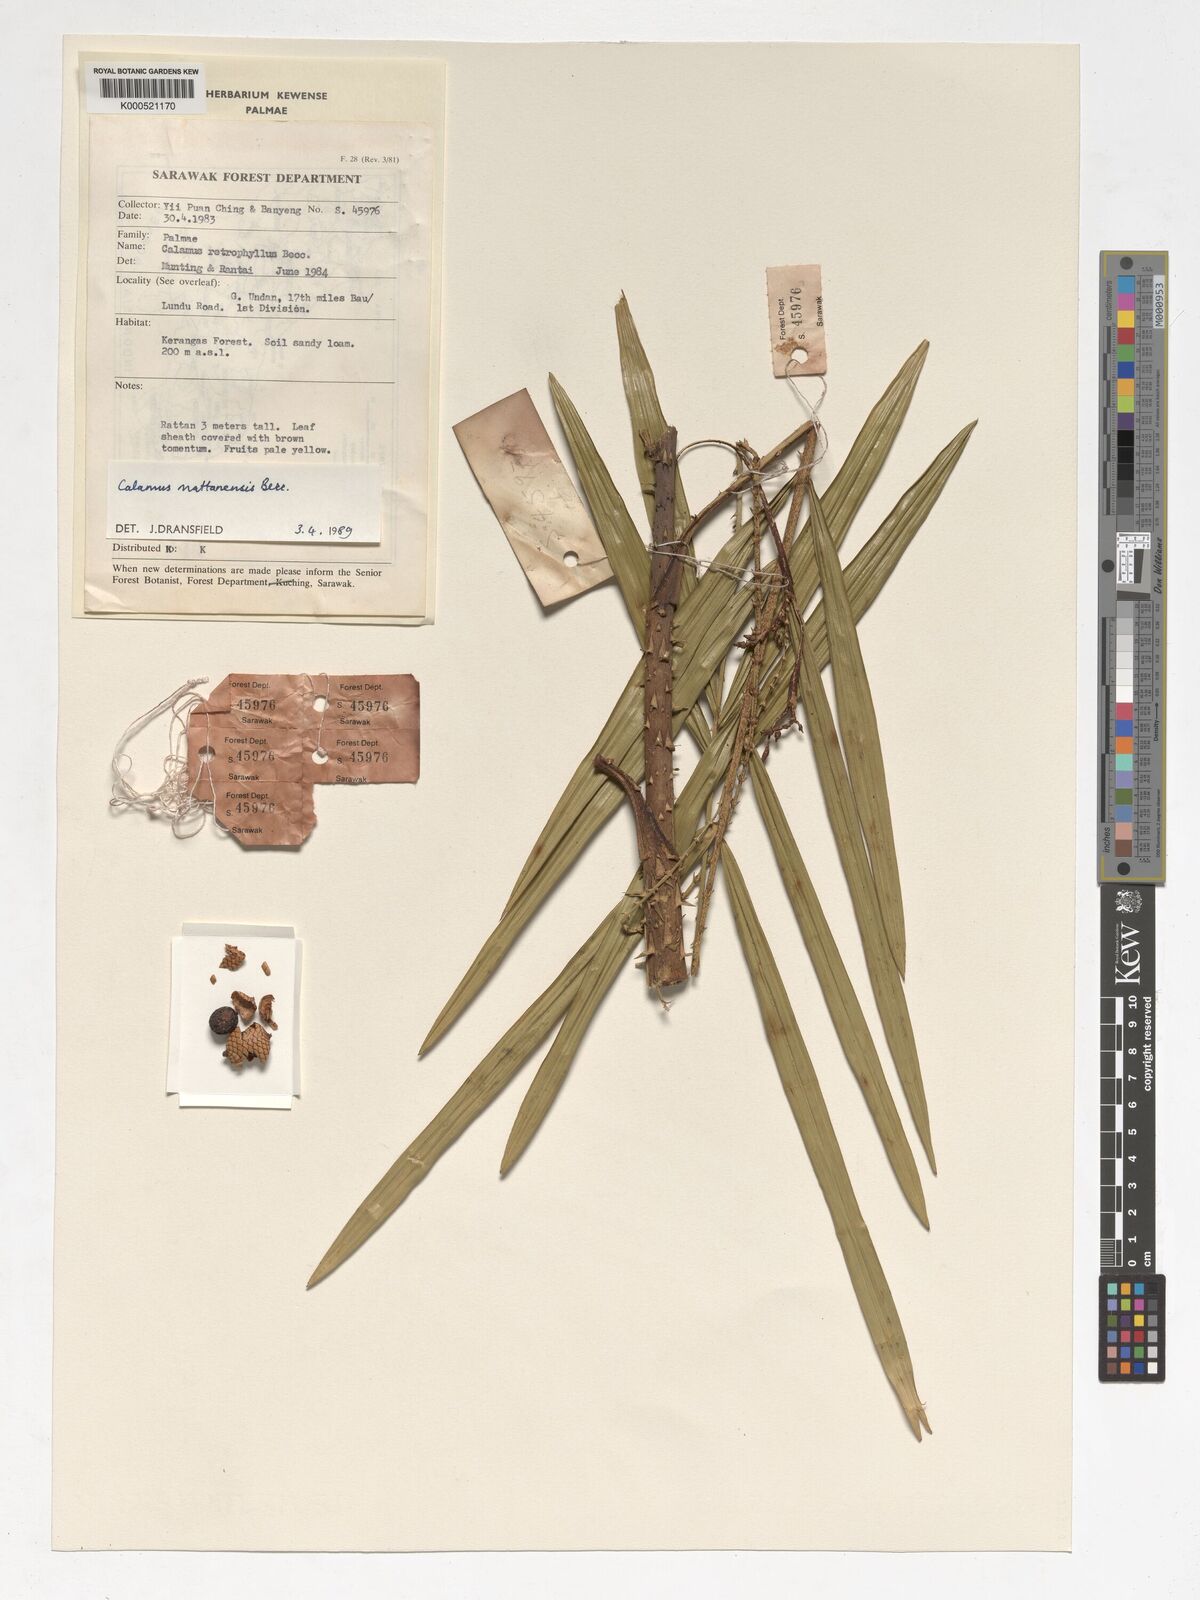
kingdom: Plantae
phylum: Tracheophyta
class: Liliopsida
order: Arecales
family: Arecaceae
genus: Calamus
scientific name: Calamus
